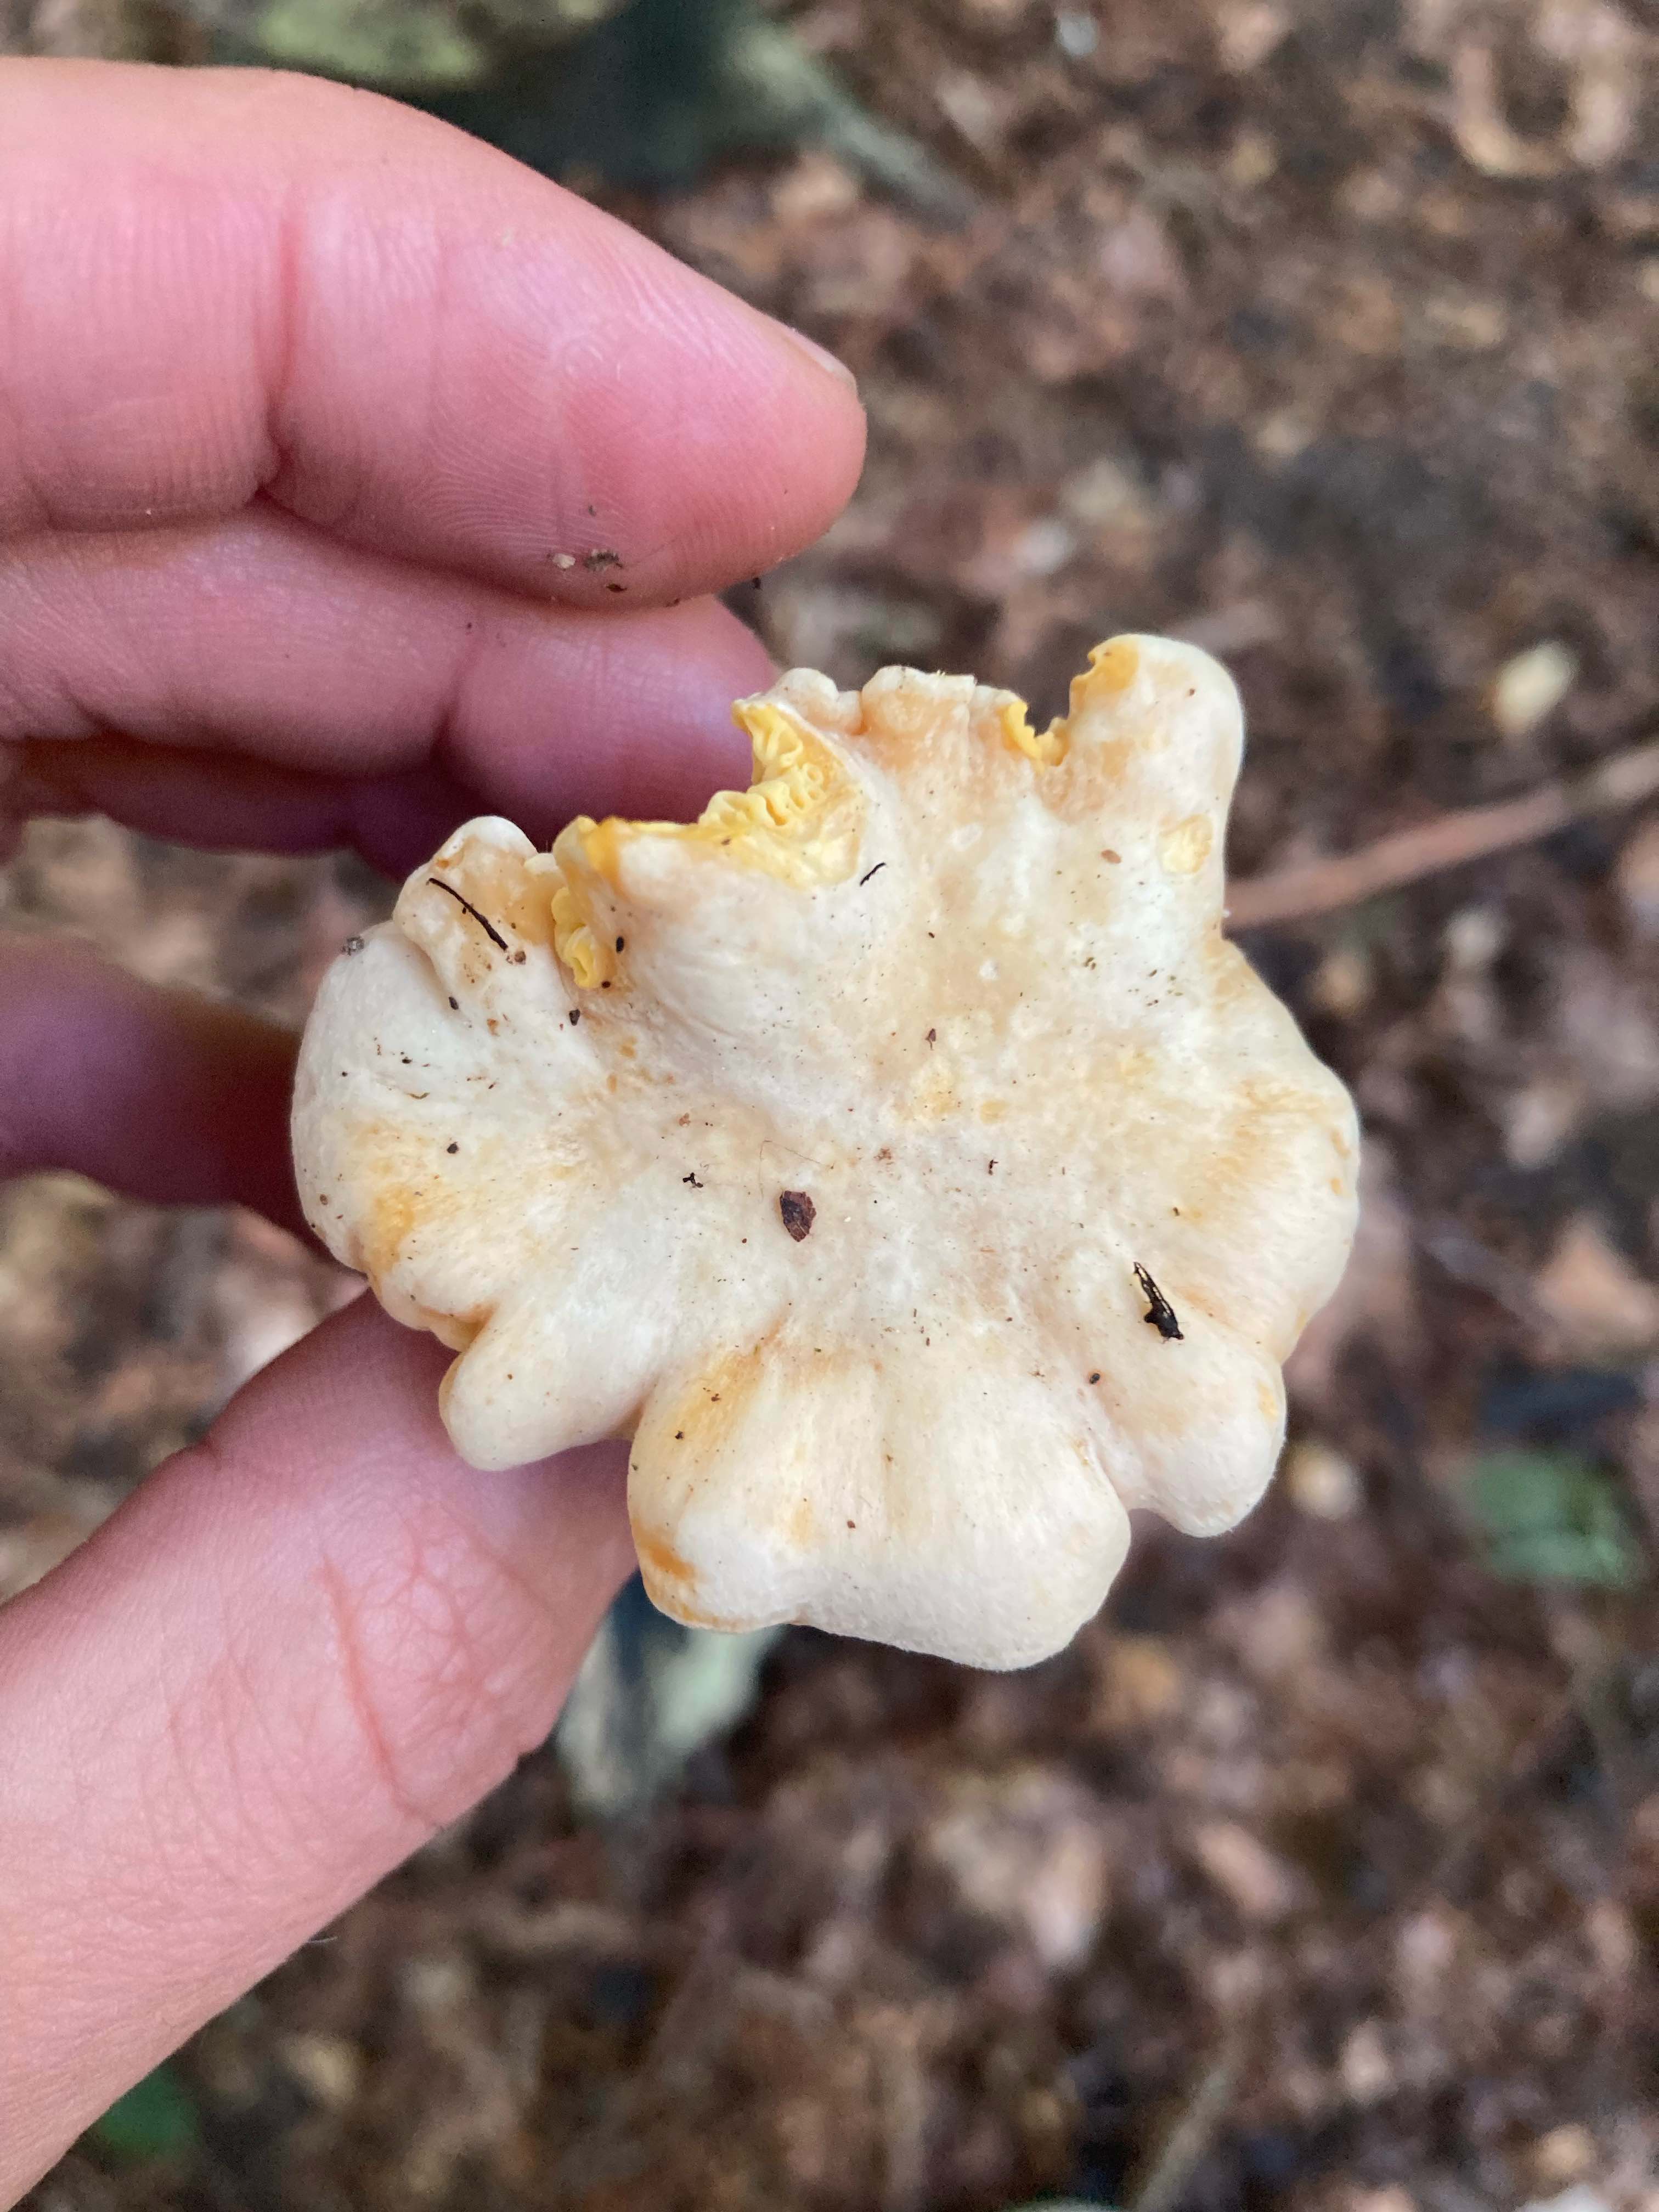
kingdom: Fungi
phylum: Basidiomycota
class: Agaricomycetes
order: Cantharellales
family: Hydnaceae
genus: Cantharellus
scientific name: Cantharellus pallens
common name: bleg kantarel
